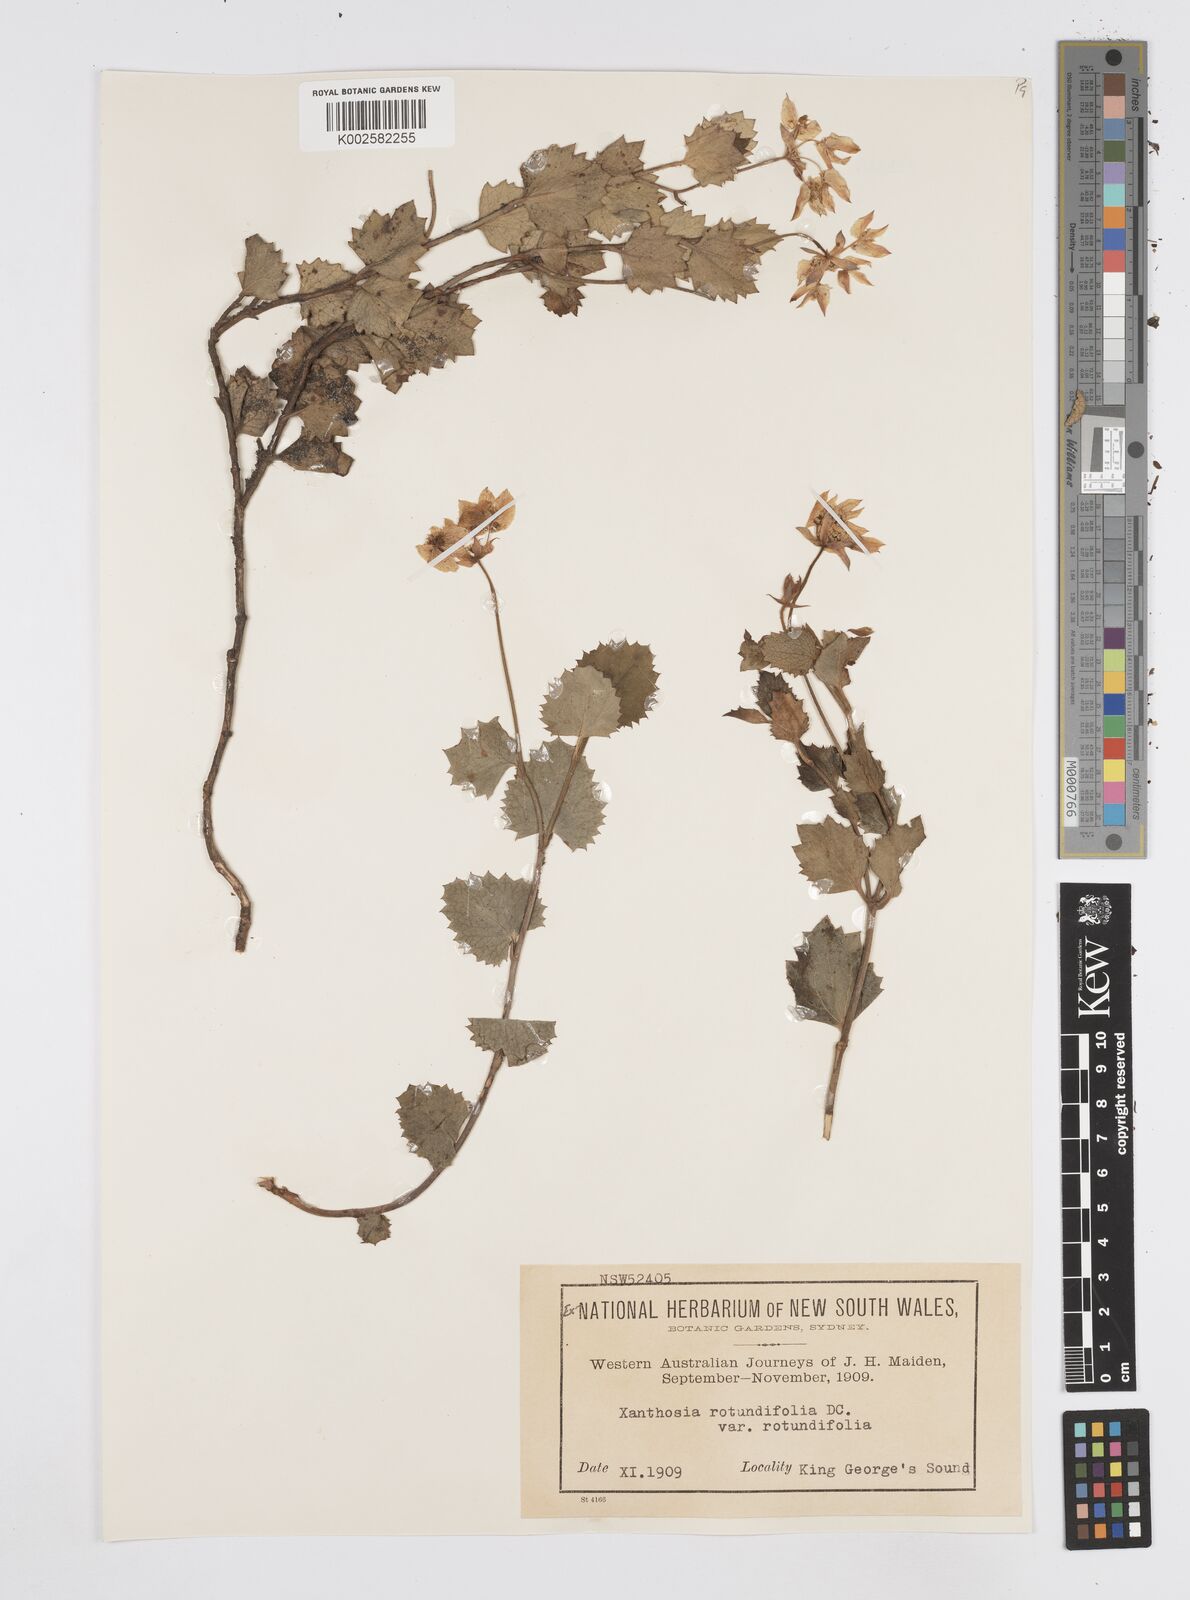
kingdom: Plantae
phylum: Tracheophyta
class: Magnoliopsida
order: Apiales
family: Apiaceae
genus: Xanthosia
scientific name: Xanthosia rotundifolia
